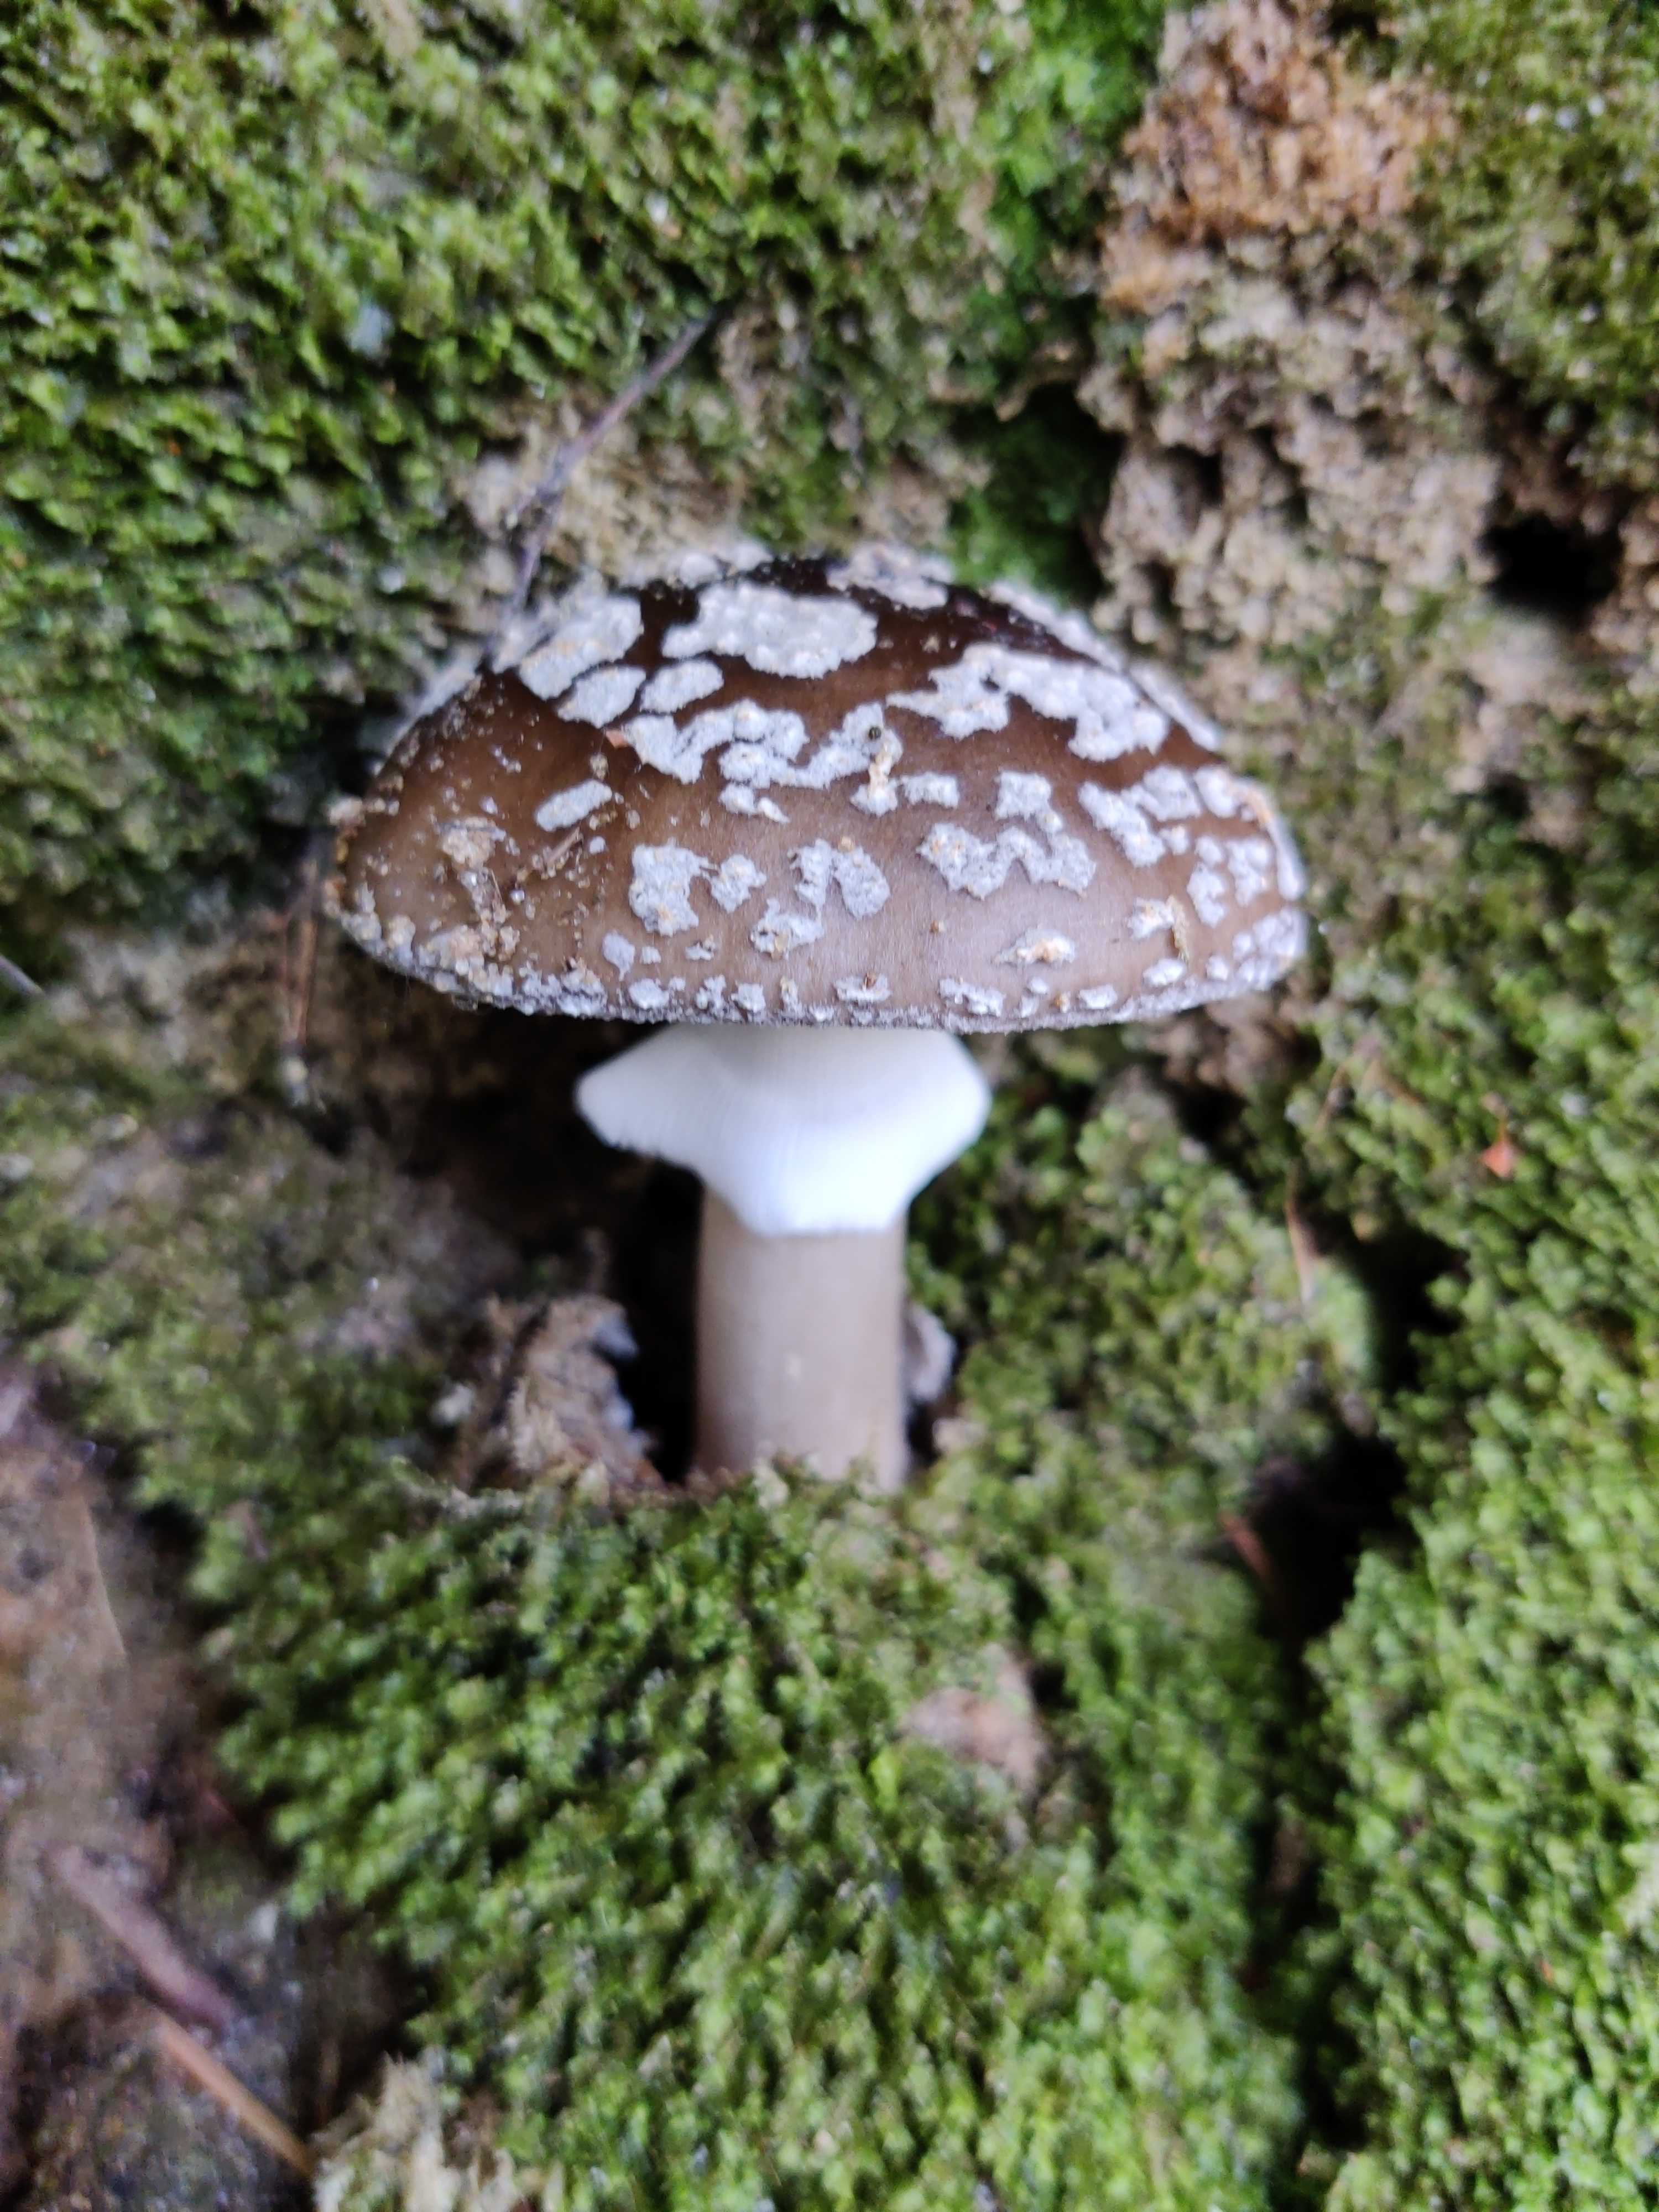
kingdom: Fungi
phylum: Basidiomycota
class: Agaricomycetes
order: Agaricales
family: Amanitaceae
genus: Amanita
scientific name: Amanita
